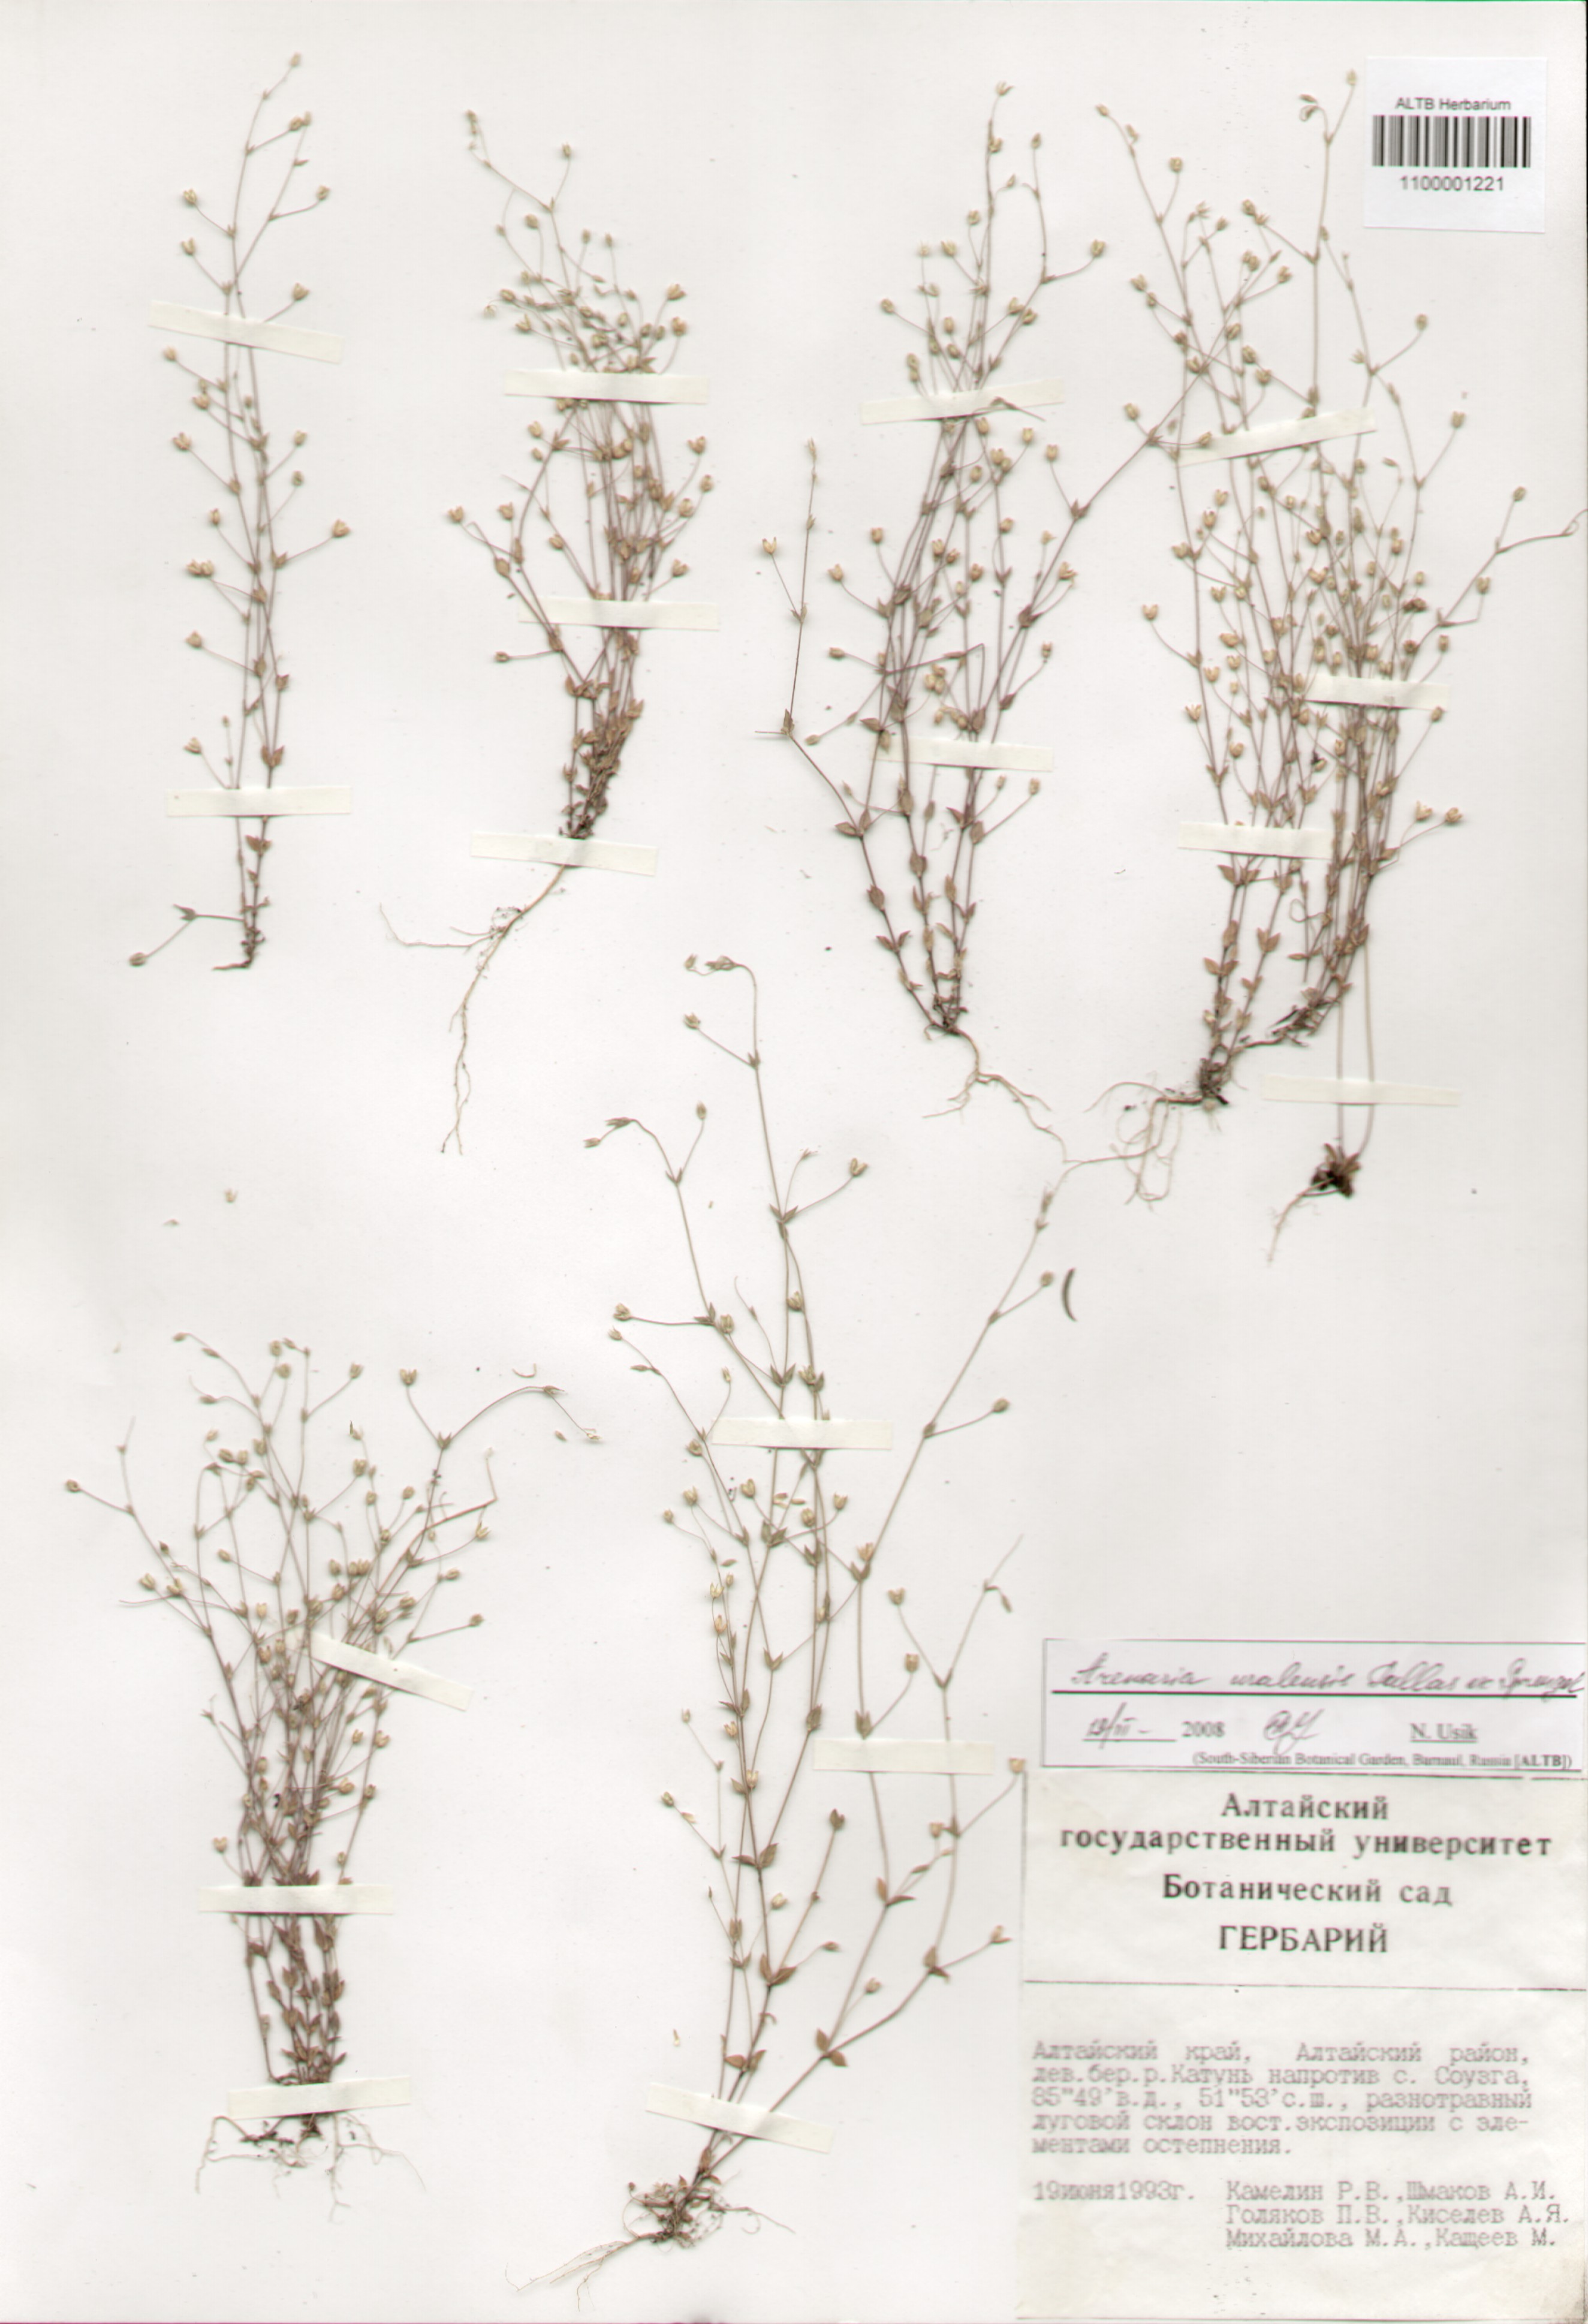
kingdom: Plantae
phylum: Tracheophyta
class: Magnoliopsida
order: Caryophyllales
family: Caryophyllaceae
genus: Arenaria
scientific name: Arenaria serpyllifolia
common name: Thyme-leaved sandwort
